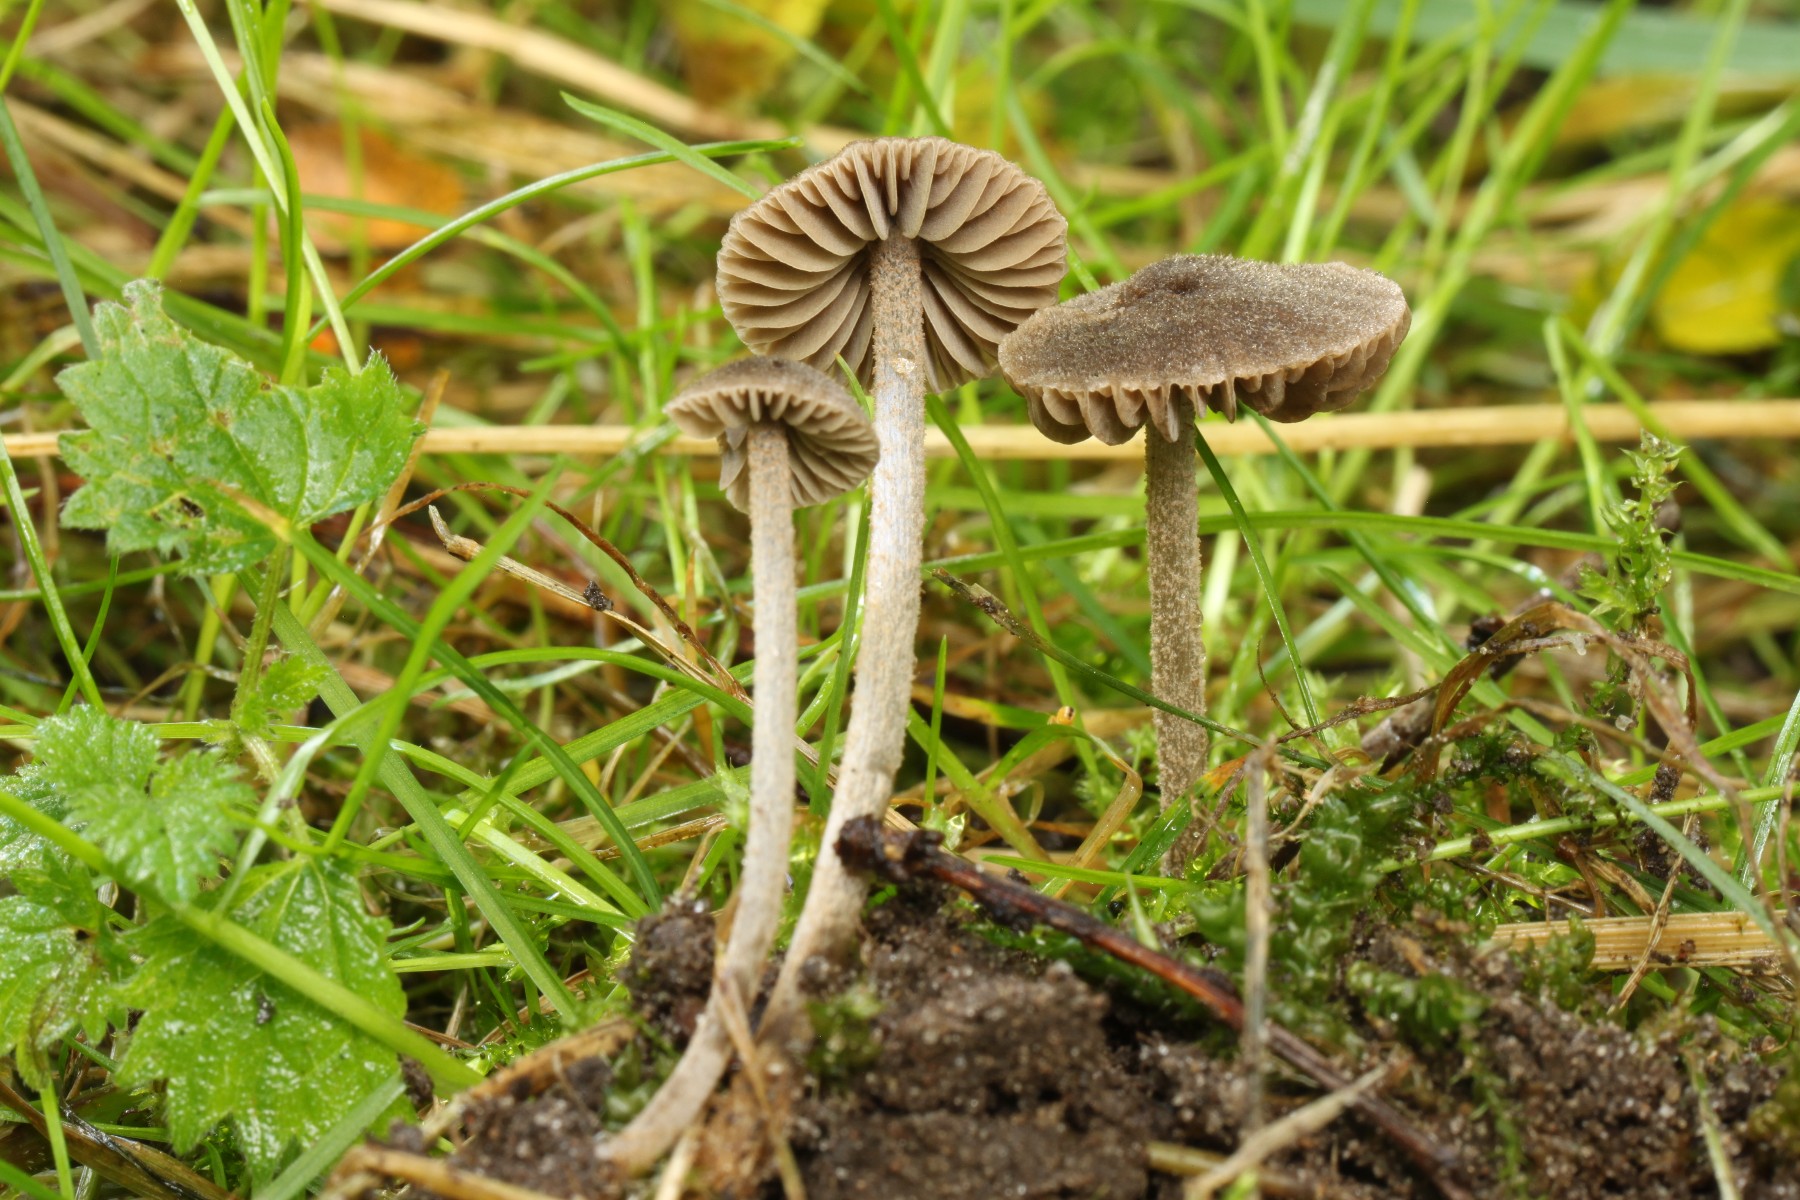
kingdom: Fungi
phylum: Basidiomycota
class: Agaricomycetes
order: Agaricales
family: Entolomataceae
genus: Entoloma
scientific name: Entoloma dysthaloides
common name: dyster rødblad
